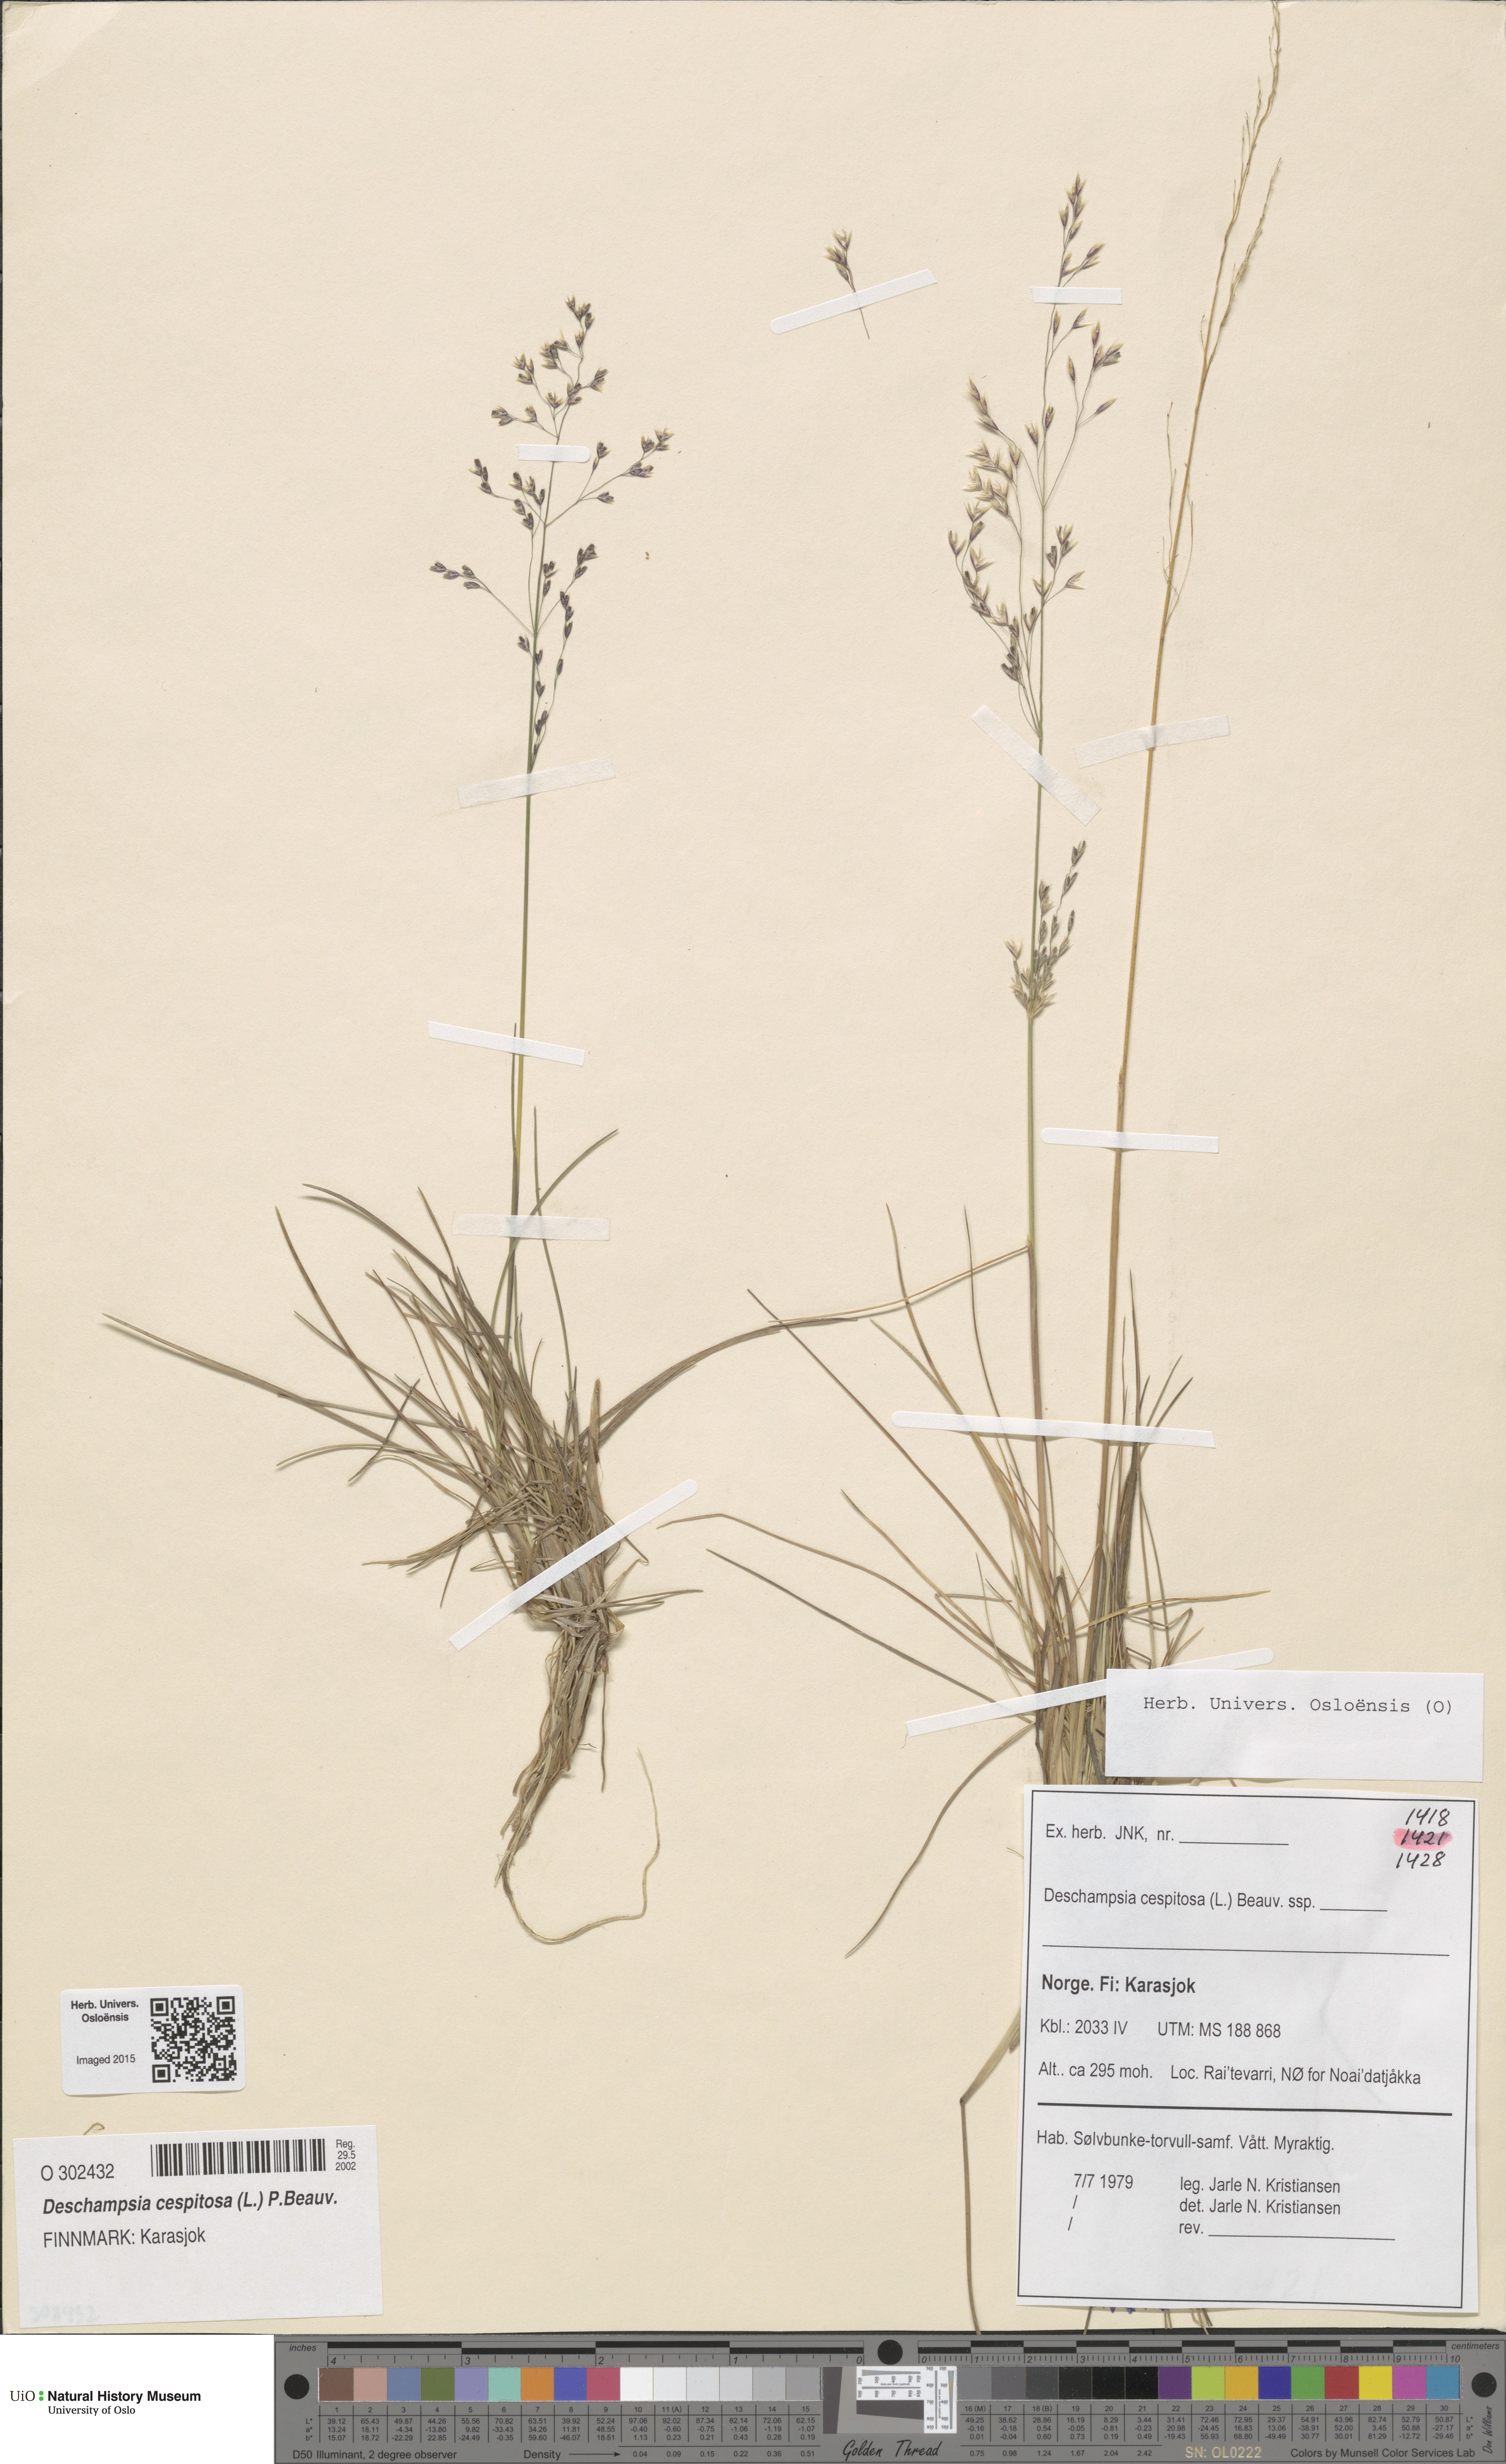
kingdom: Plantae
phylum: Tracheophyta
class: Liliopsida
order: Poales
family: Poaceae
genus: Deschampsia
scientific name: Deschampsia cespitosa
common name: Tufted hair-grass
